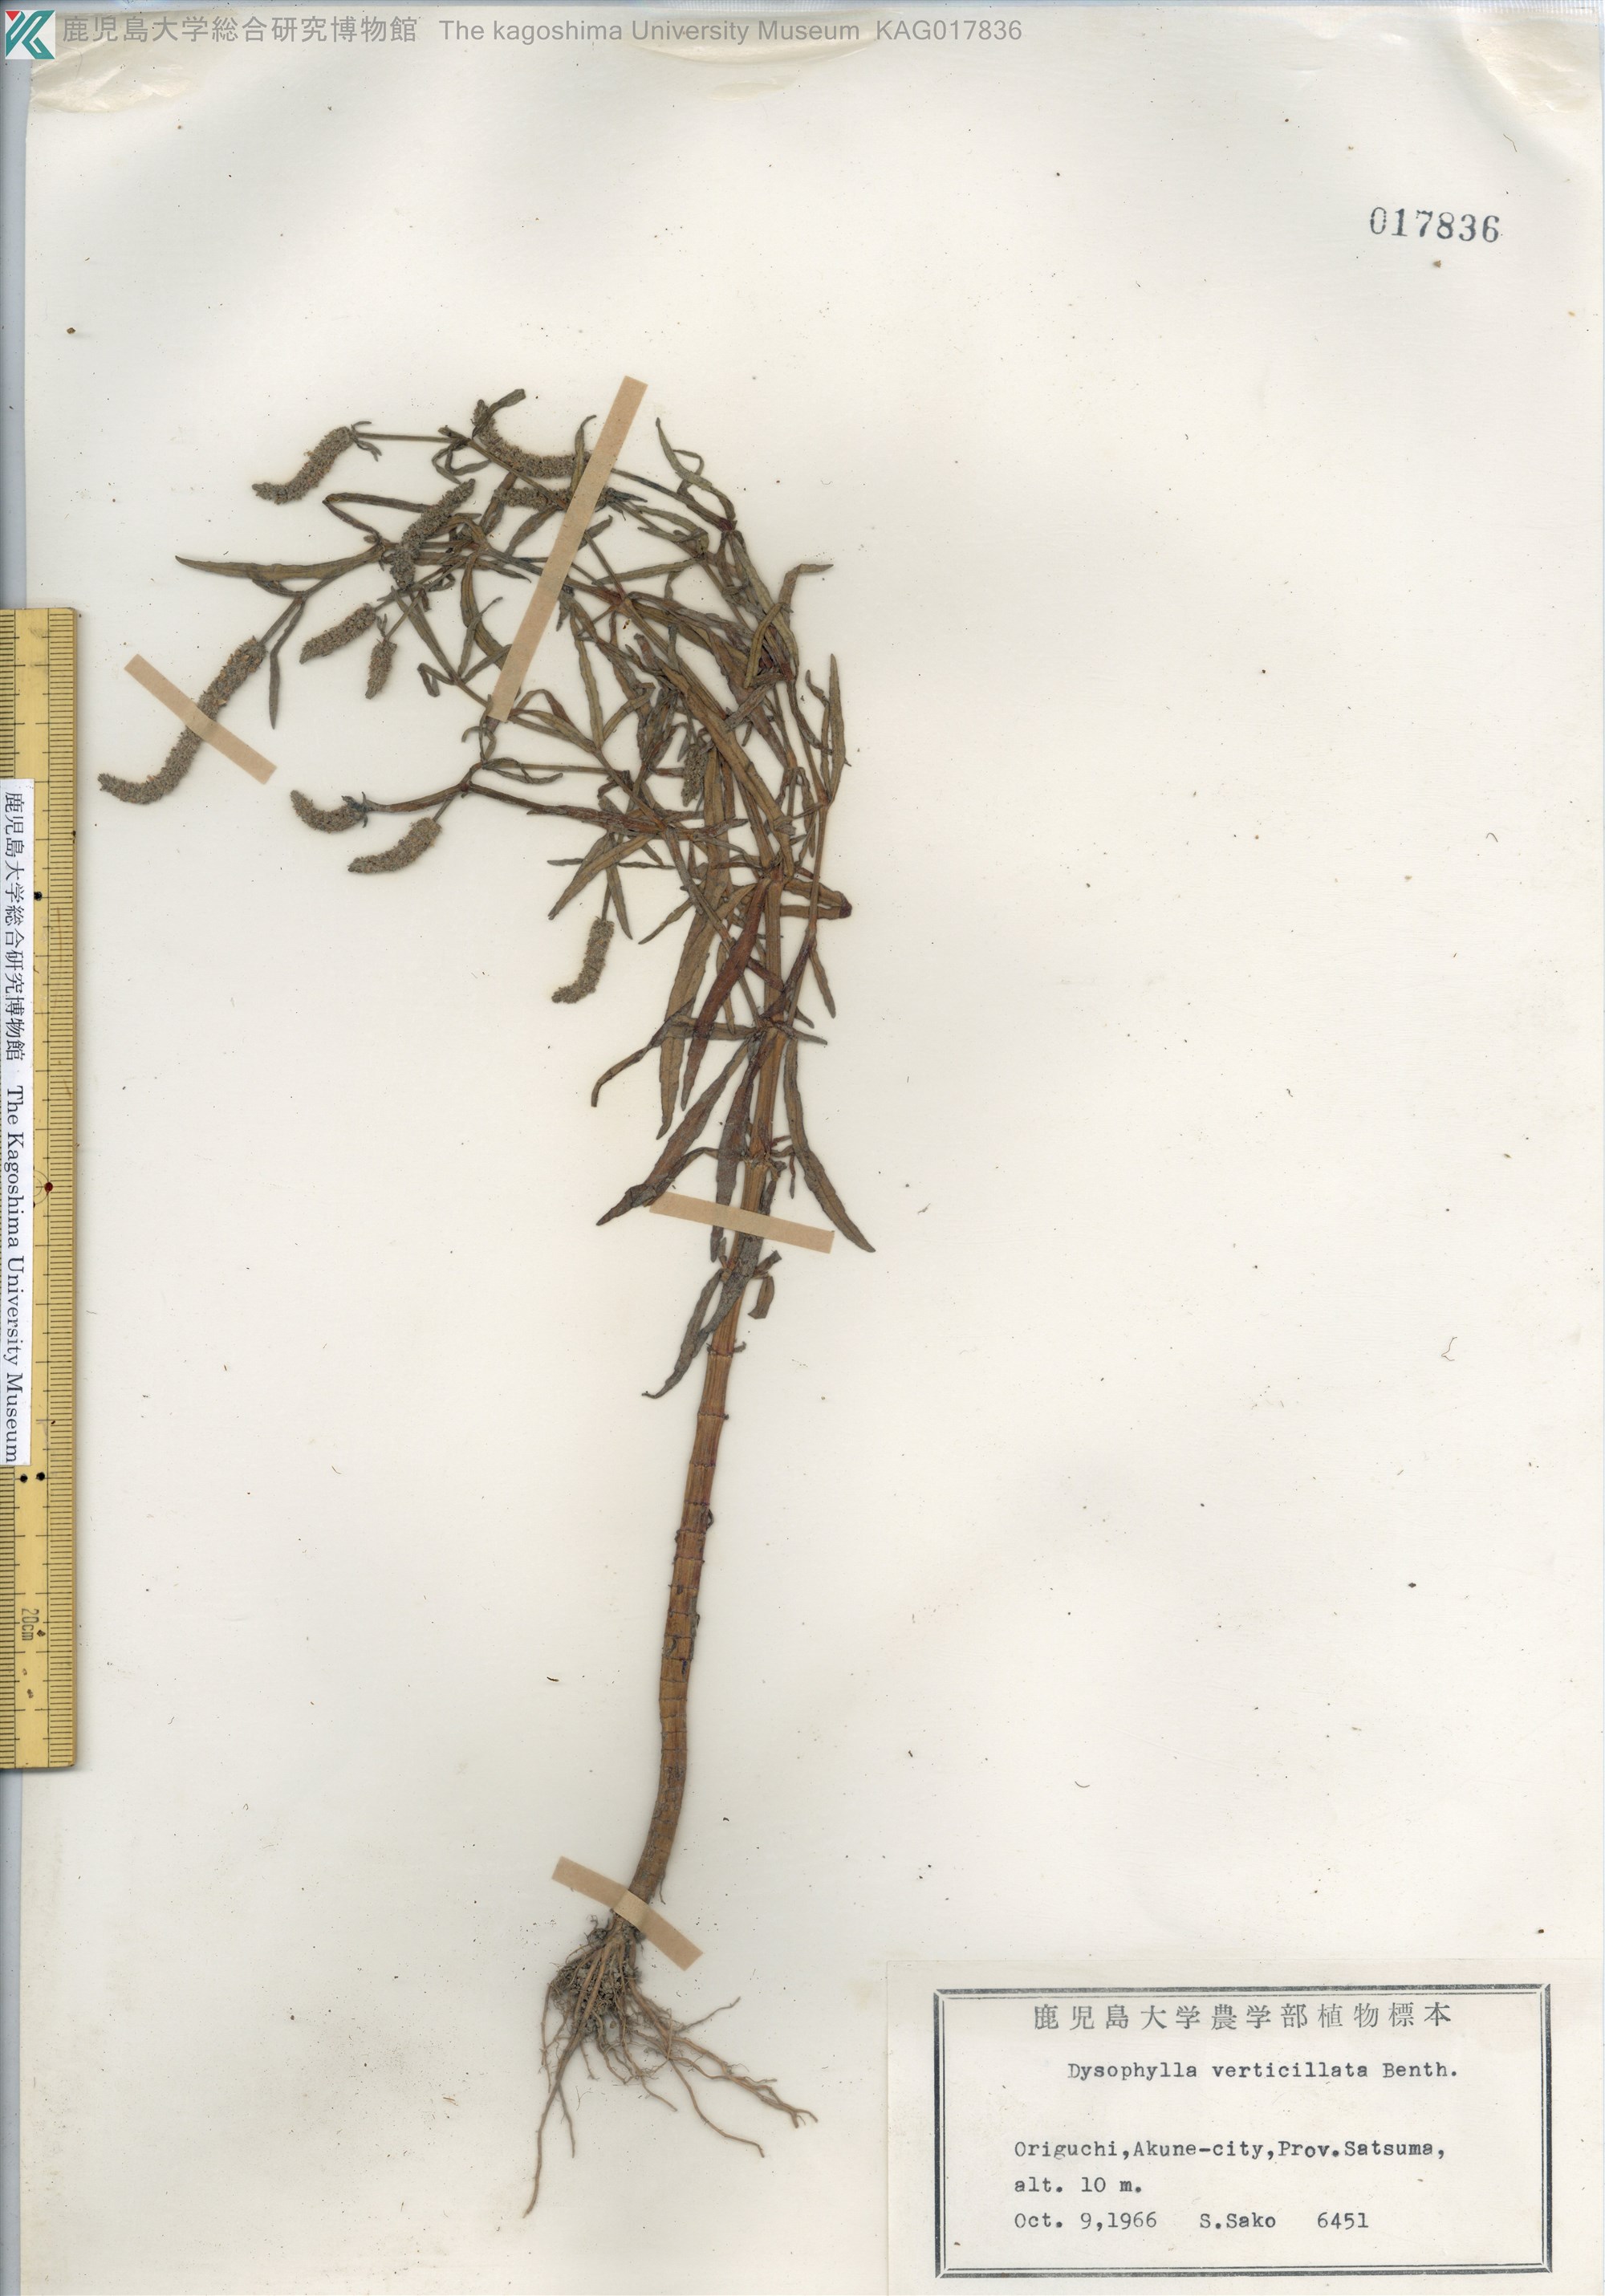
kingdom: Plantae
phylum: Tracheophyta
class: Magnoliopsida
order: Lamiales
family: Lamiaceae
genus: Pogostemon
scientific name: Pogostemon stellatus
